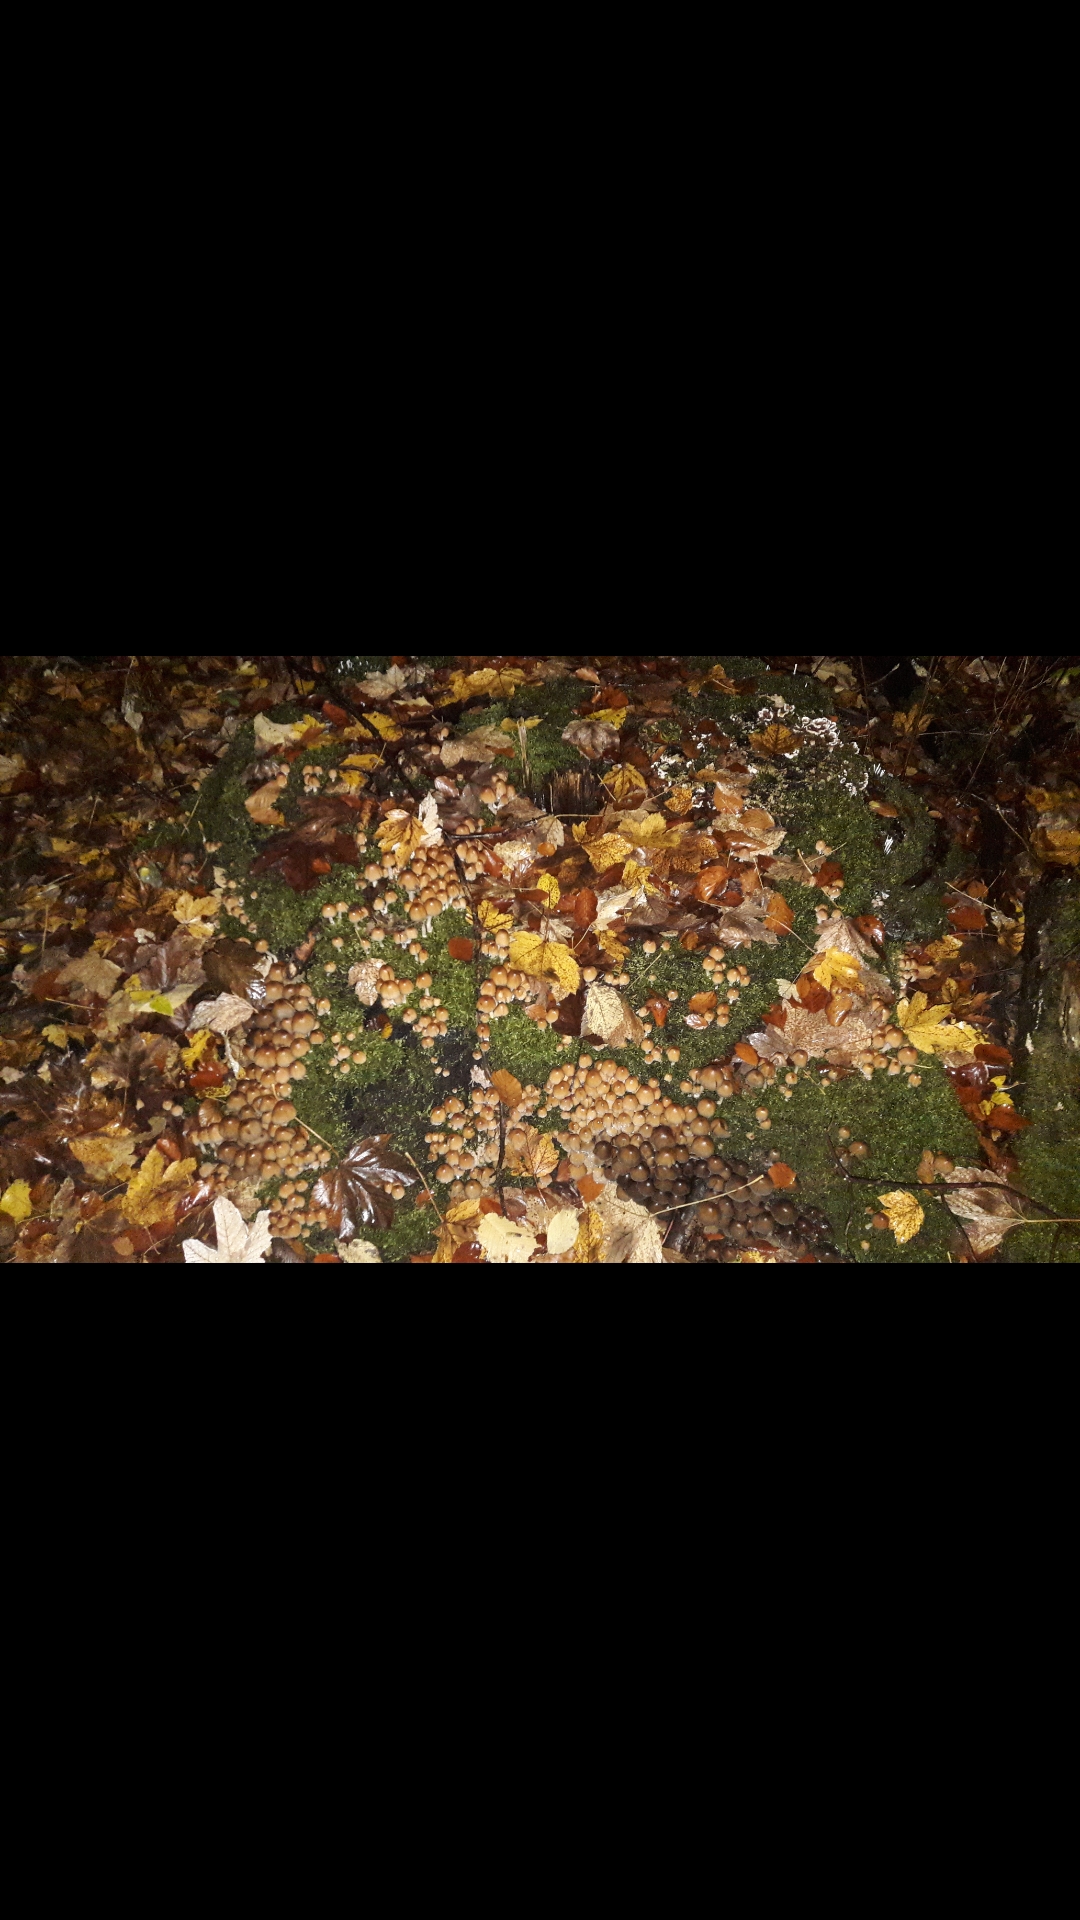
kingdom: Fungi
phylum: Basidiomycota
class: Agaricomycetes
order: Agaricales
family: Psathyrellaceae
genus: Coprinellus
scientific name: Coprinellus micaceus
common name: glimmer-blækhat
